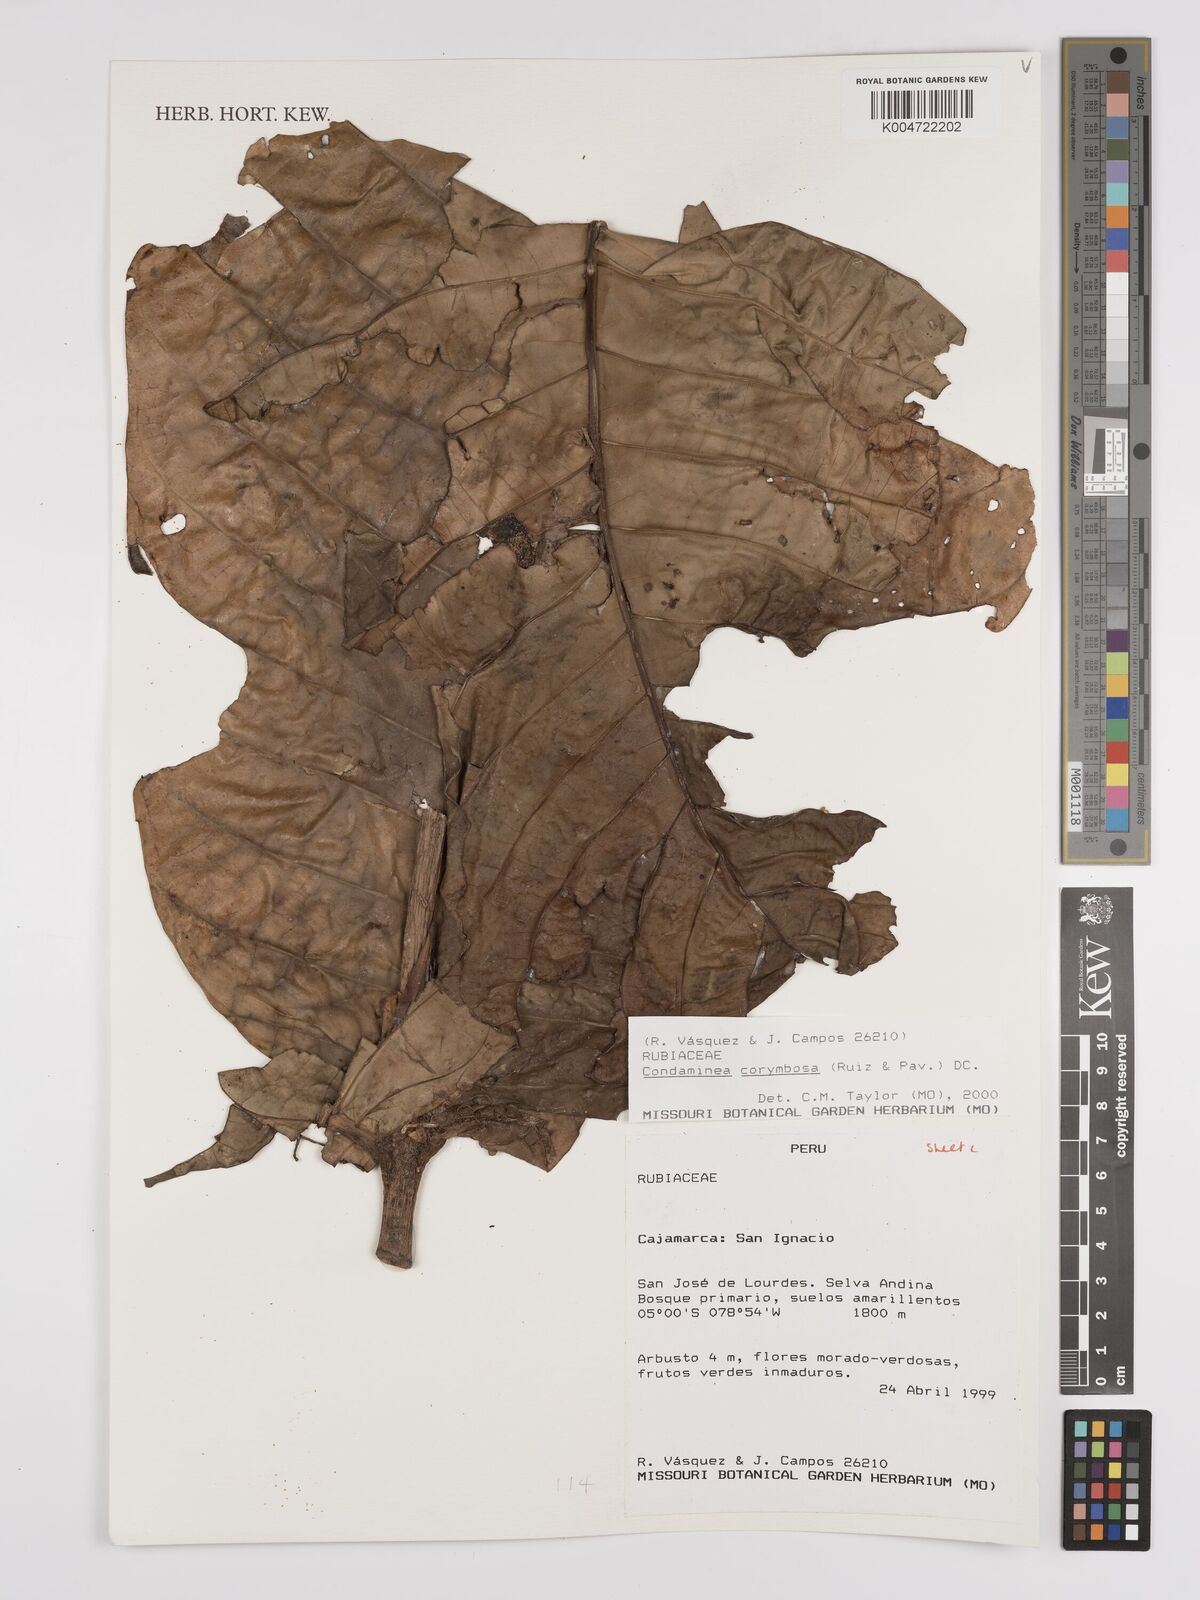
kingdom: Plantae
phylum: Tracheophyta
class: Magnoliopsida
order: Gentianales
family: Rubiaceae
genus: Condaminea
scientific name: Condaminea corymbosa
